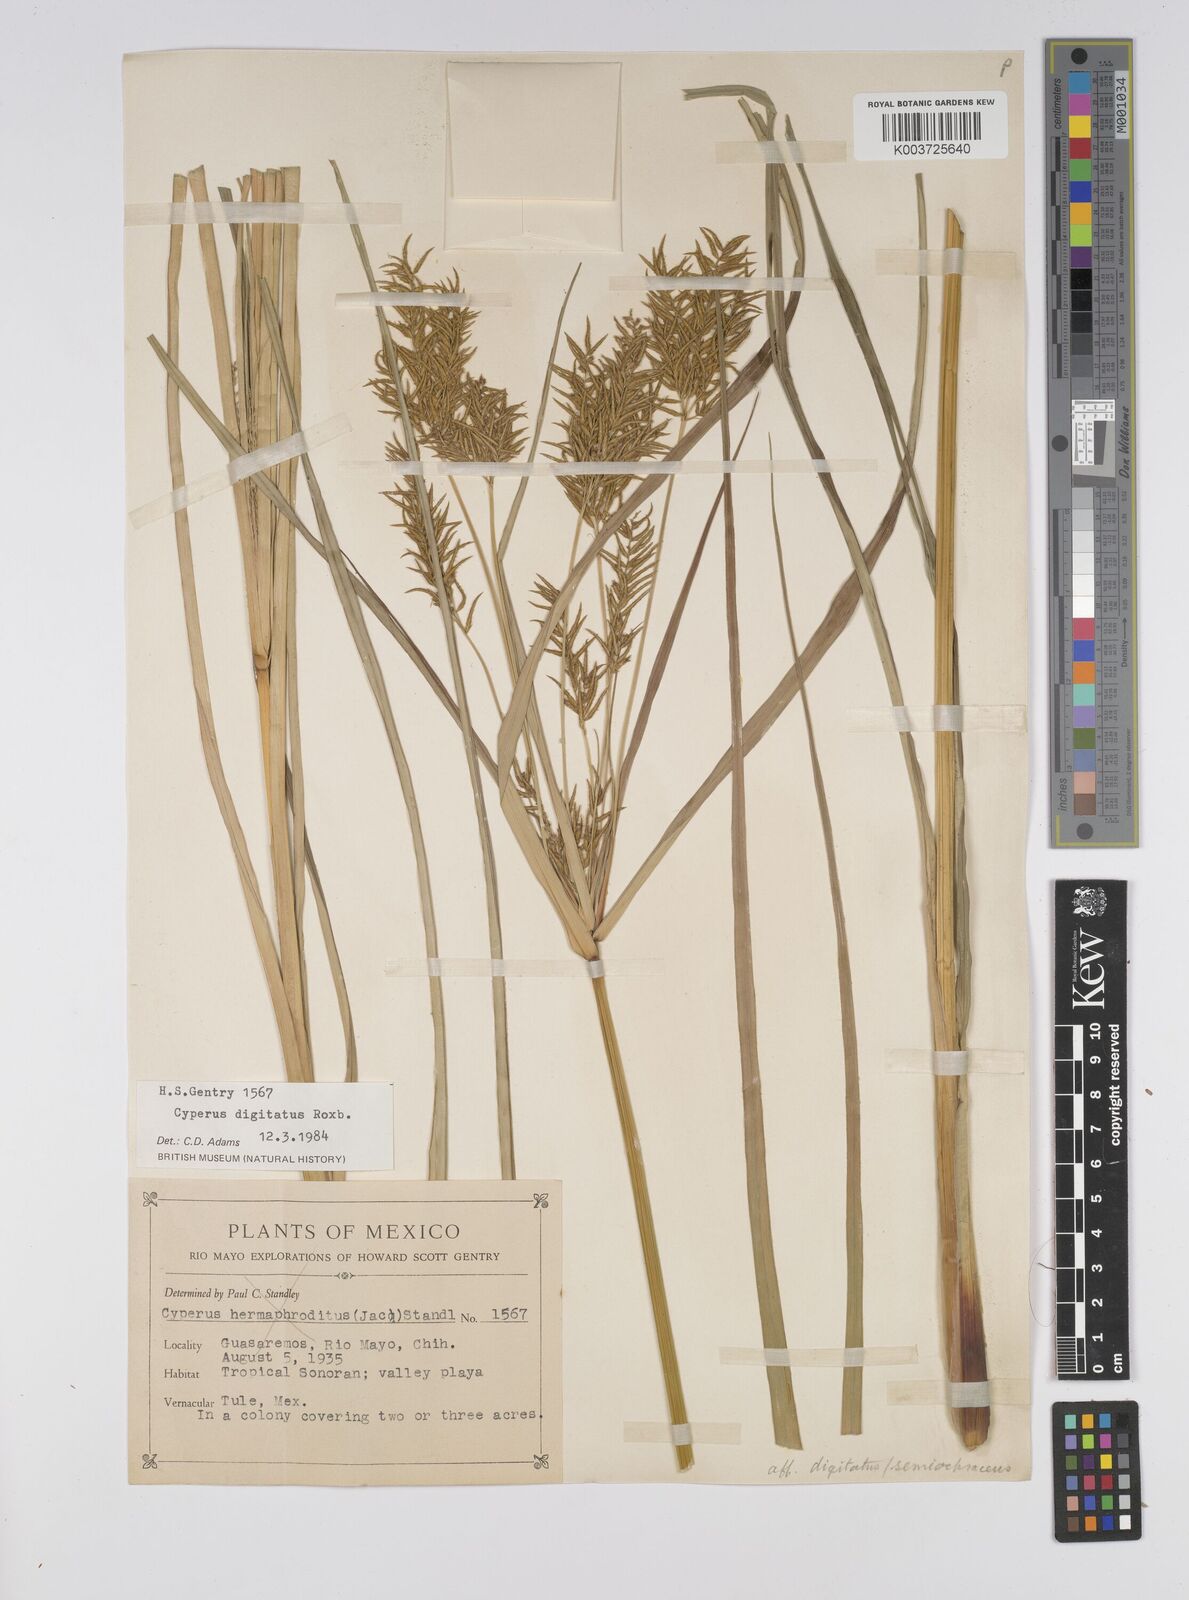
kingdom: Plantae
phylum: Tracheophyta
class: Liliopsida
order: Poales
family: Cyperaceae
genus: Cyperus
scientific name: Cyperus digitatus
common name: Finger flatsedge
